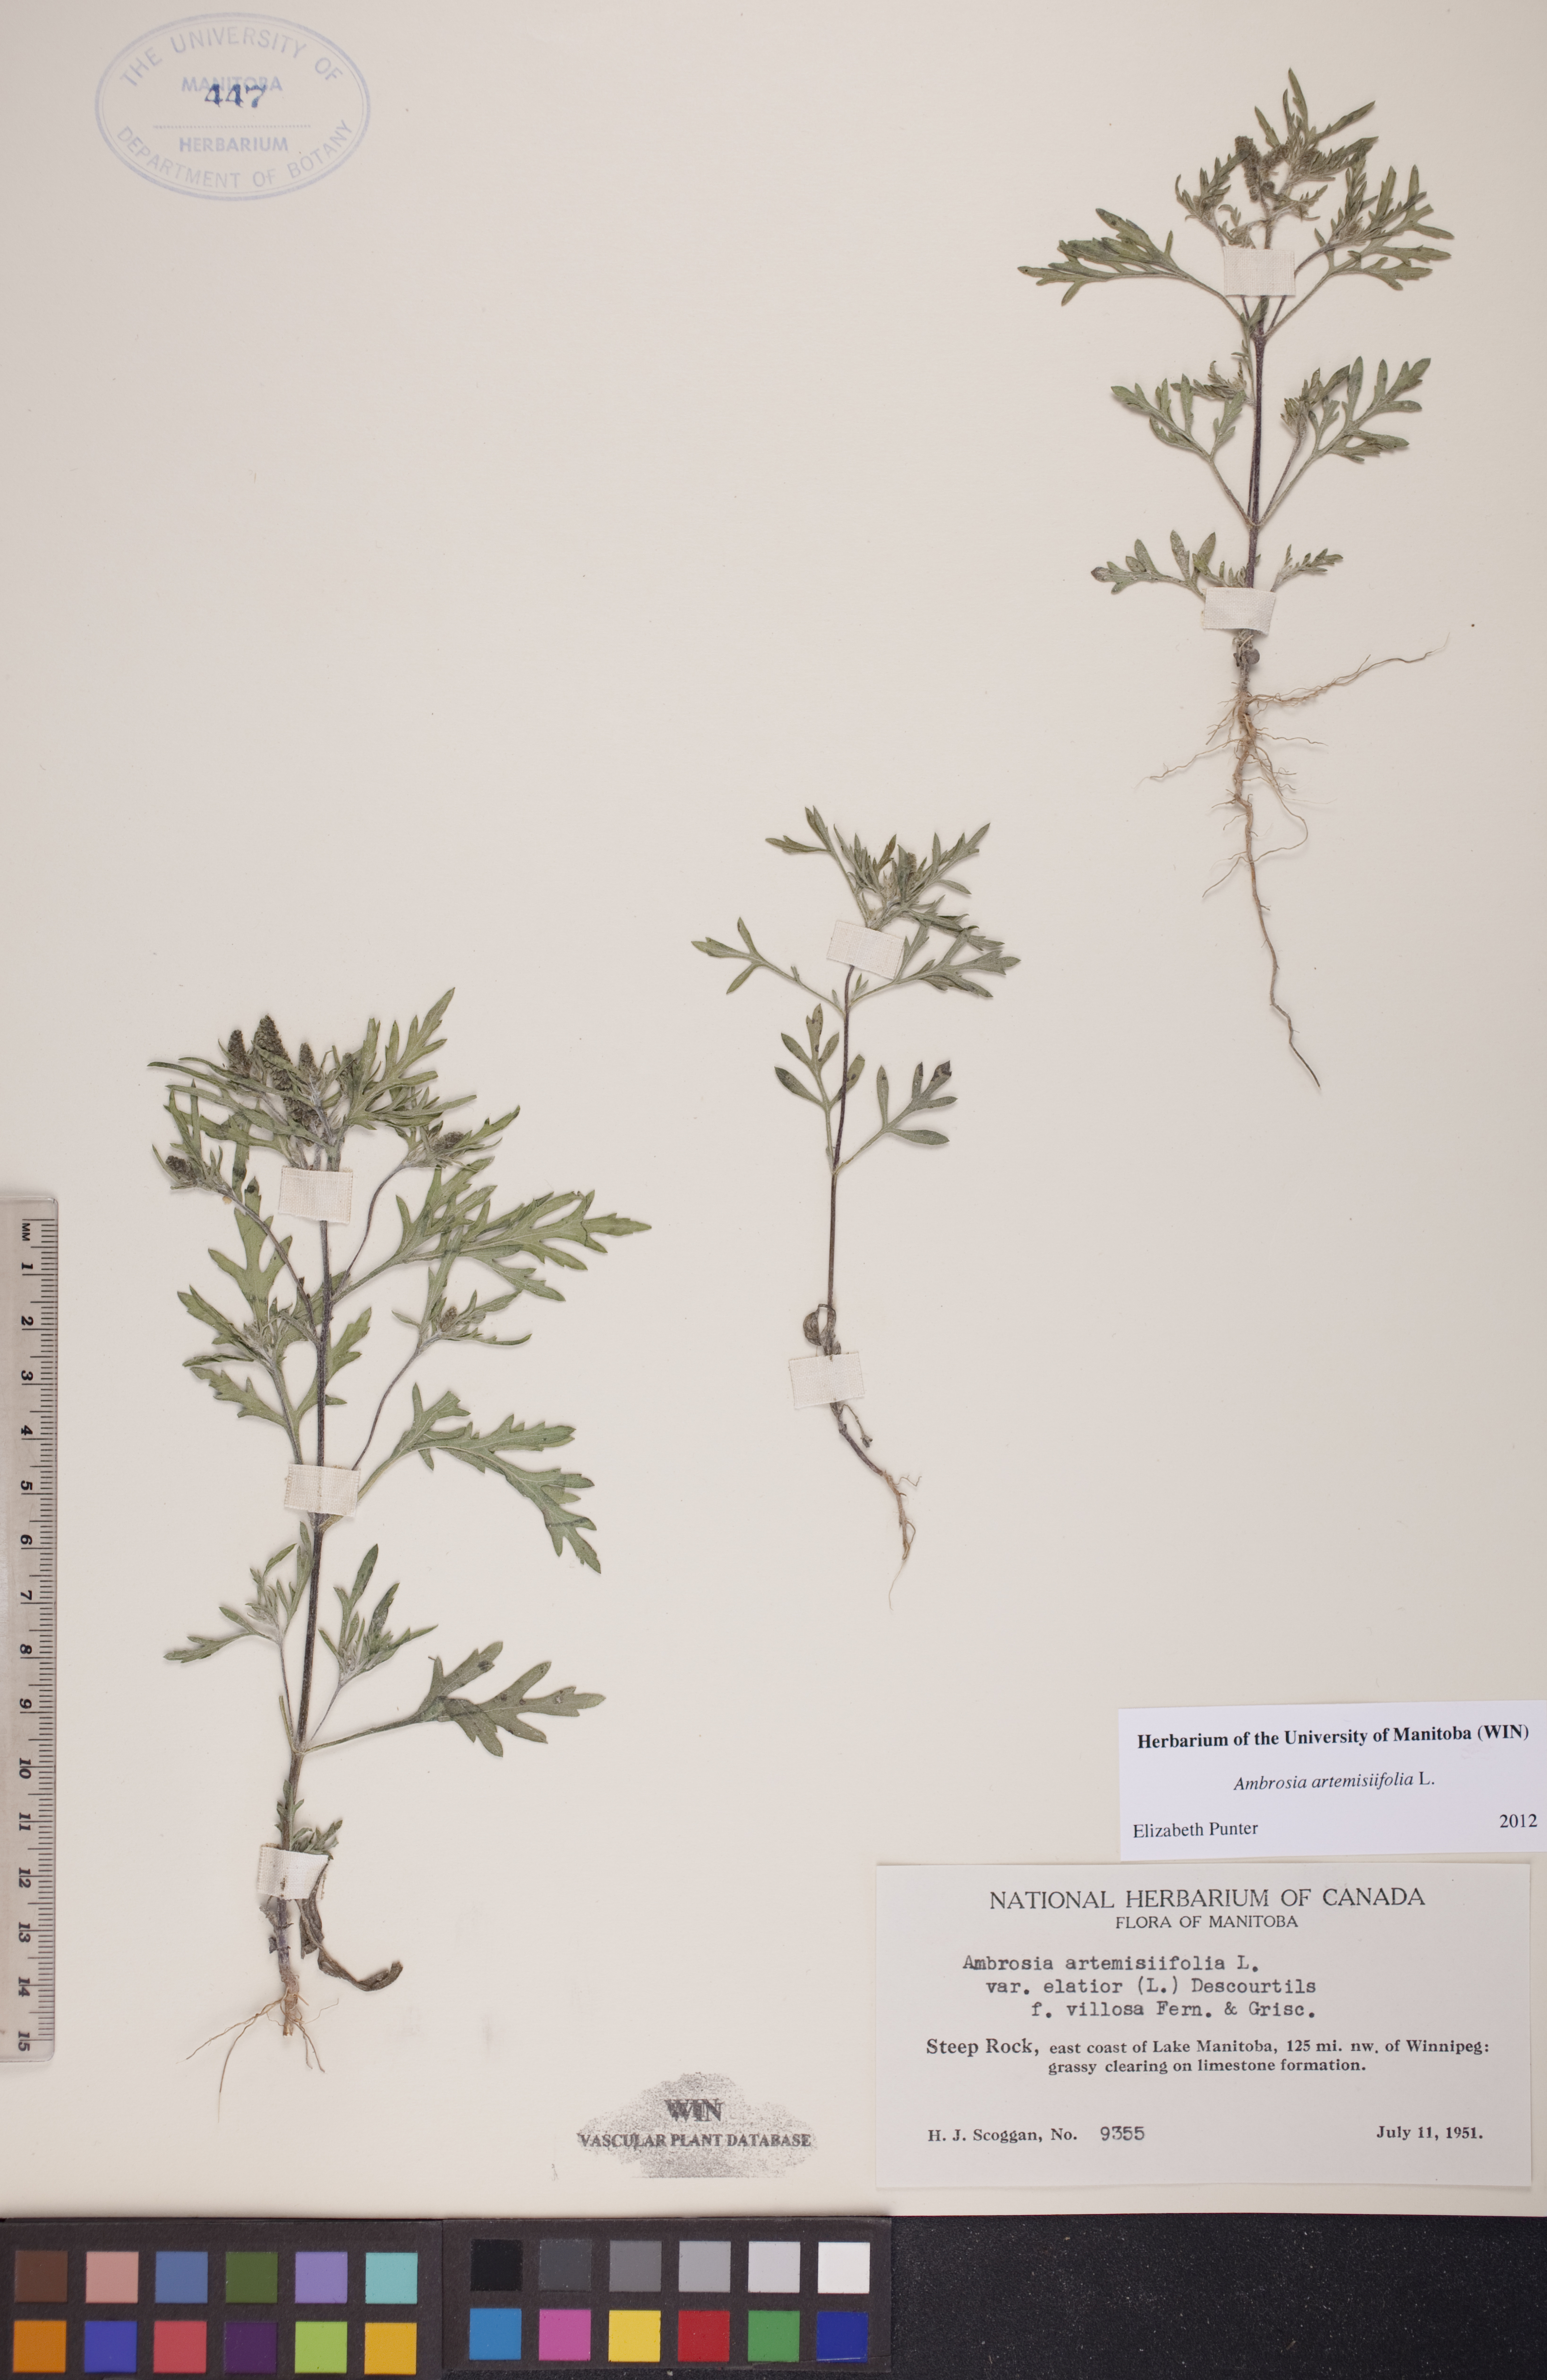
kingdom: Plantae
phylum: Tracheophyta
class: Magnoliopsida
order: Asterales
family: Asteraceae
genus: Ambrosia
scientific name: Ambrosia artemisiifolia
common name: Annual ragweed
